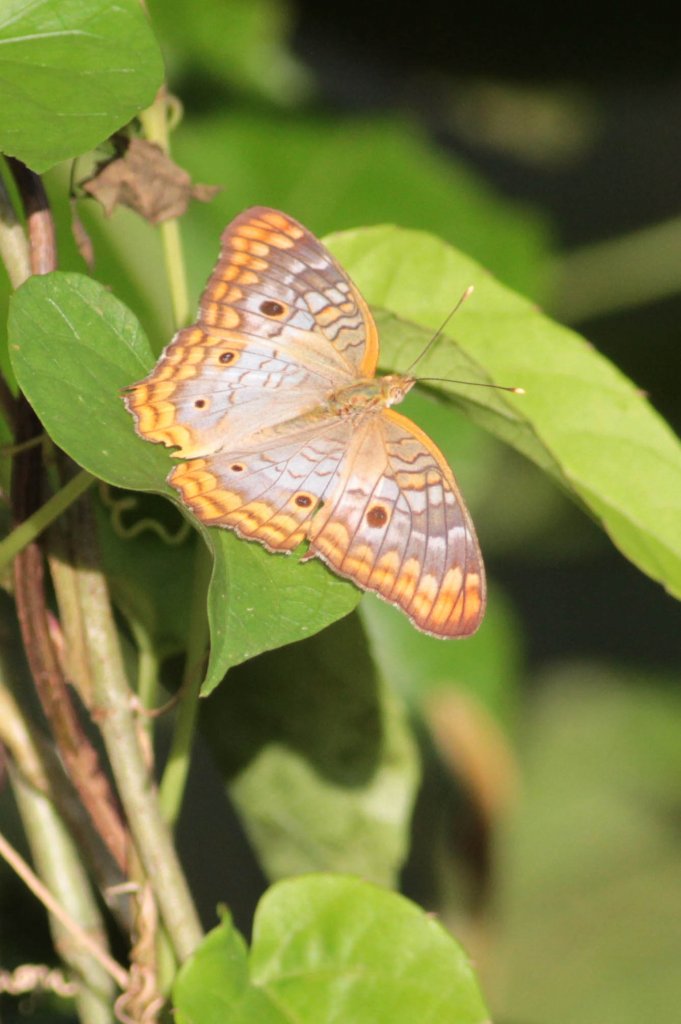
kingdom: Animalia
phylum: Arthropoda
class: Insecta
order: Lepidoptera
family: Nymphalidae
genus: Anartia
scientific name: Anartia jatrophae
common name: White Peacock
